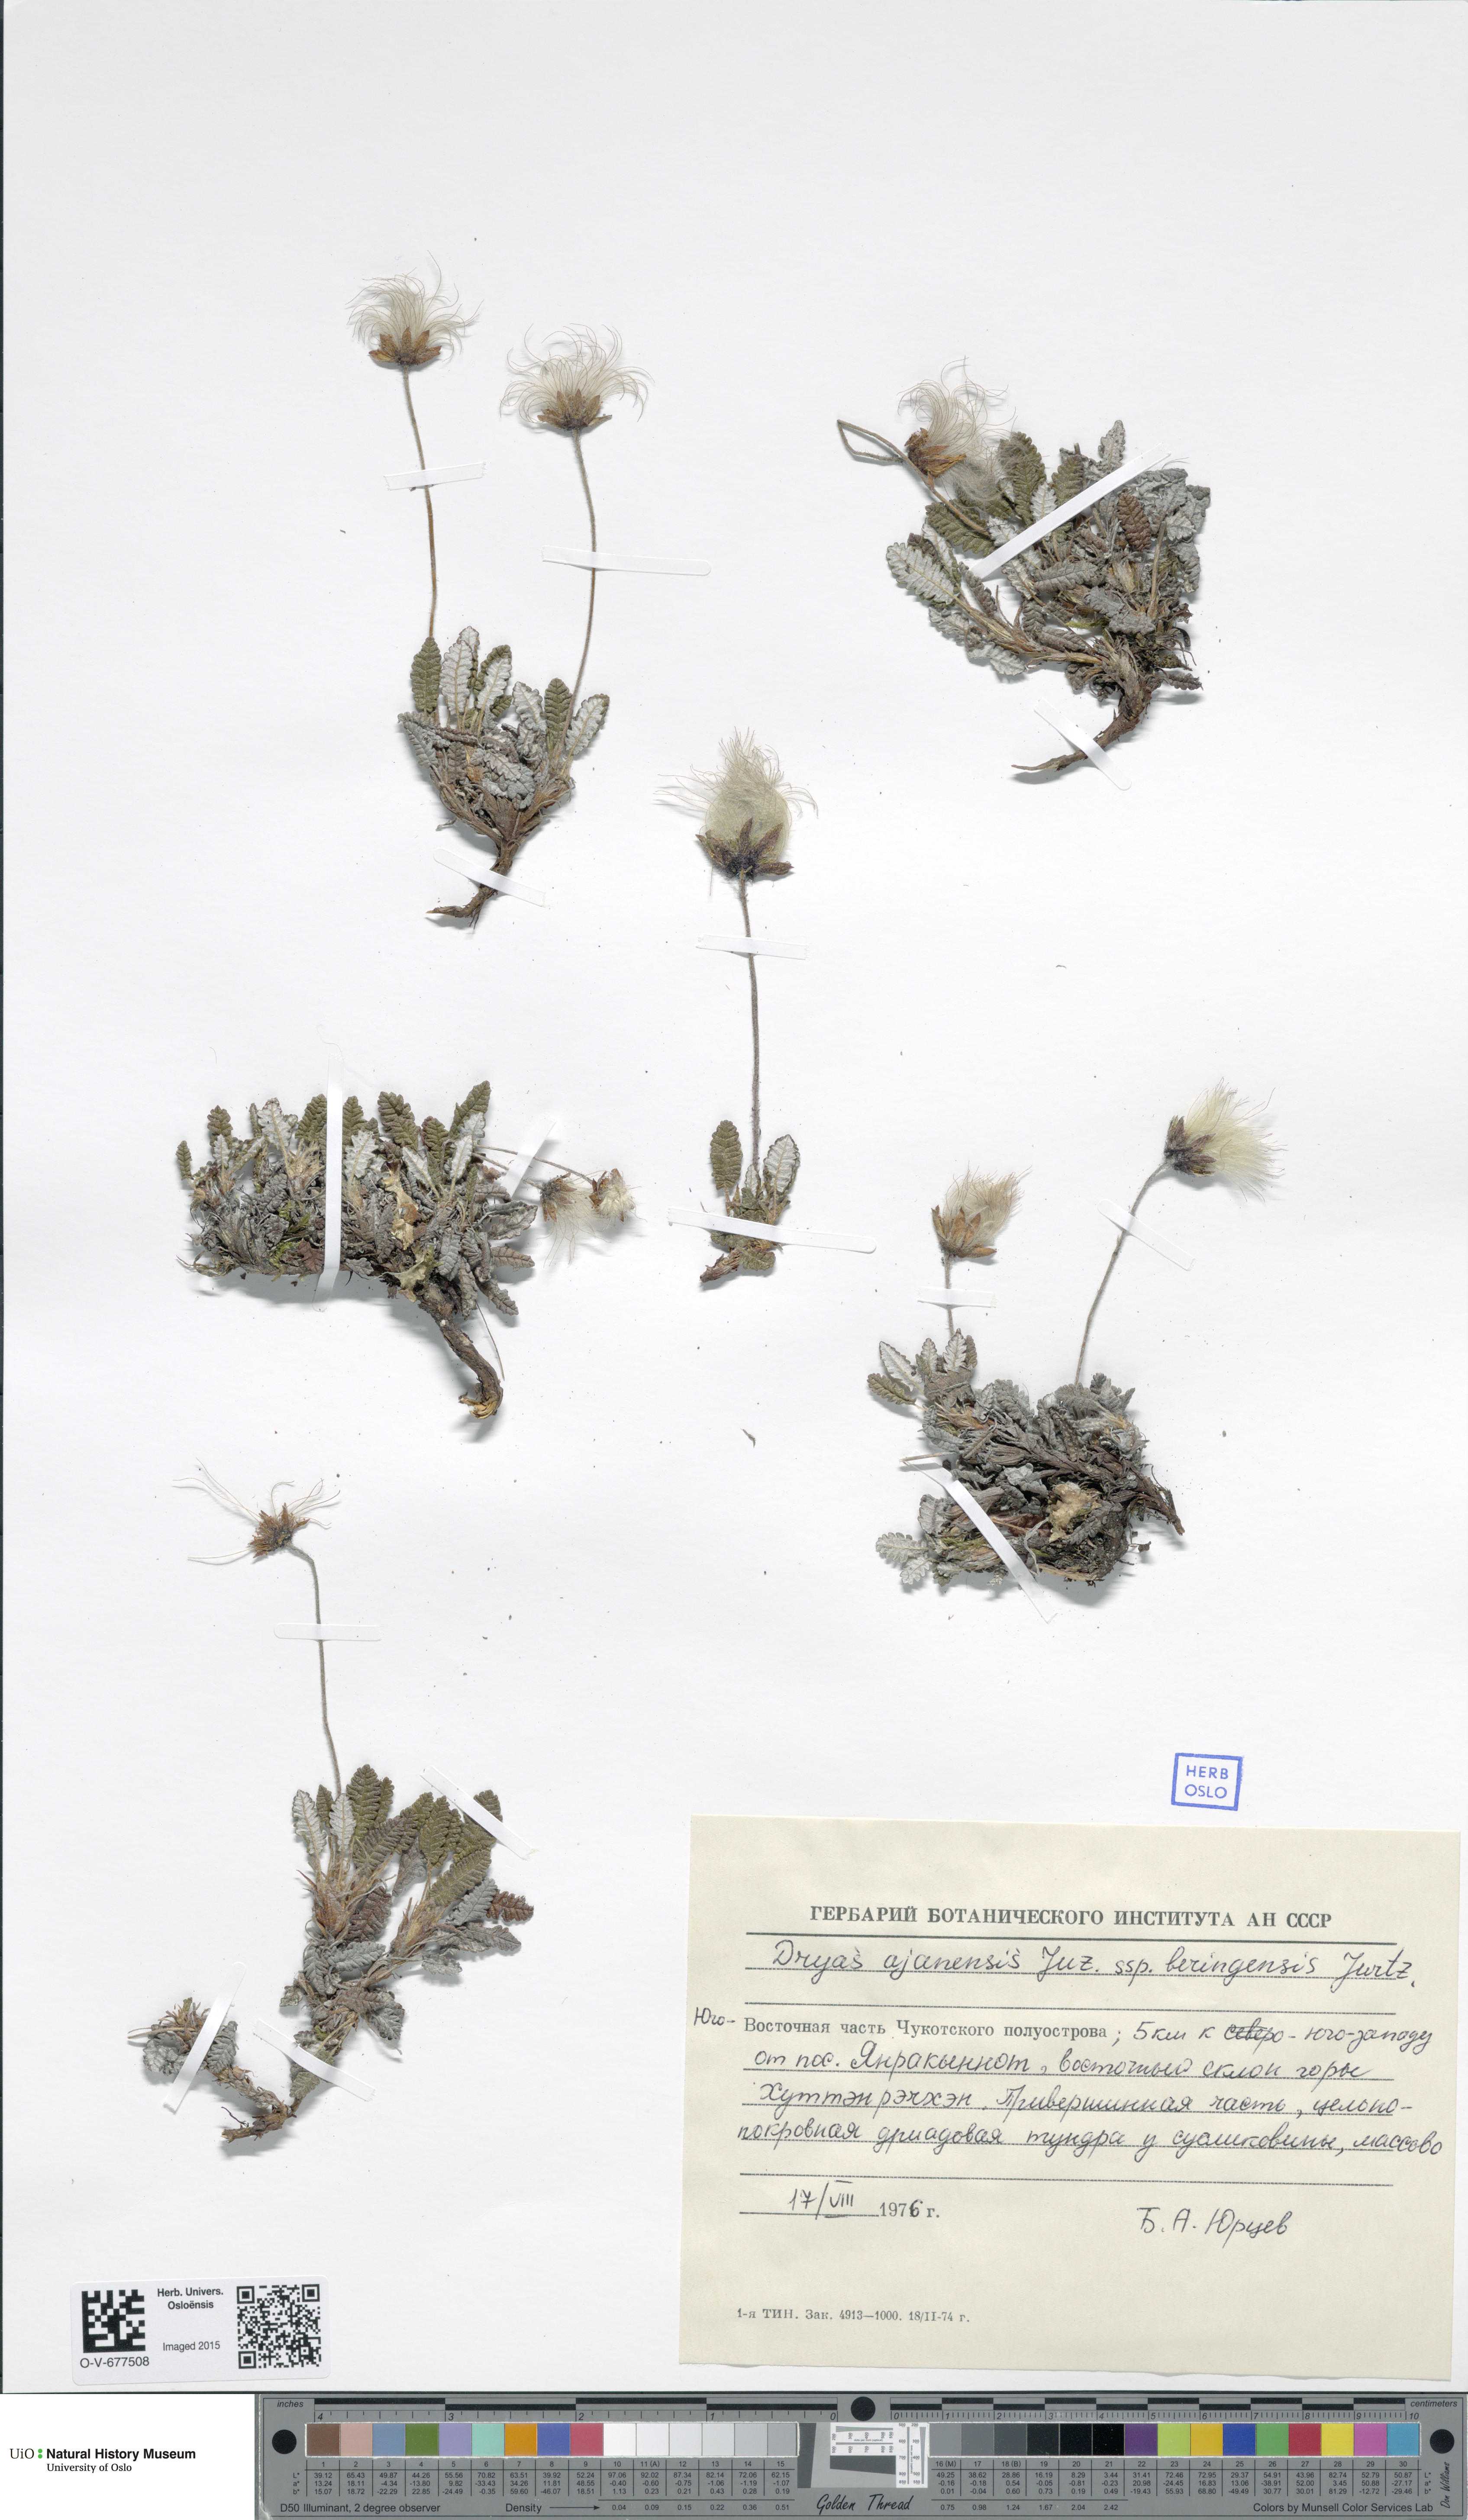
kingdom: Plantae
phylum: Tracheophyta
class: Magnoliopsida
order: Rosales
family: Rosaceae
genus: Dryas
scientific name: Dryas octopetala
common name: Eight-petal mountain-avens
